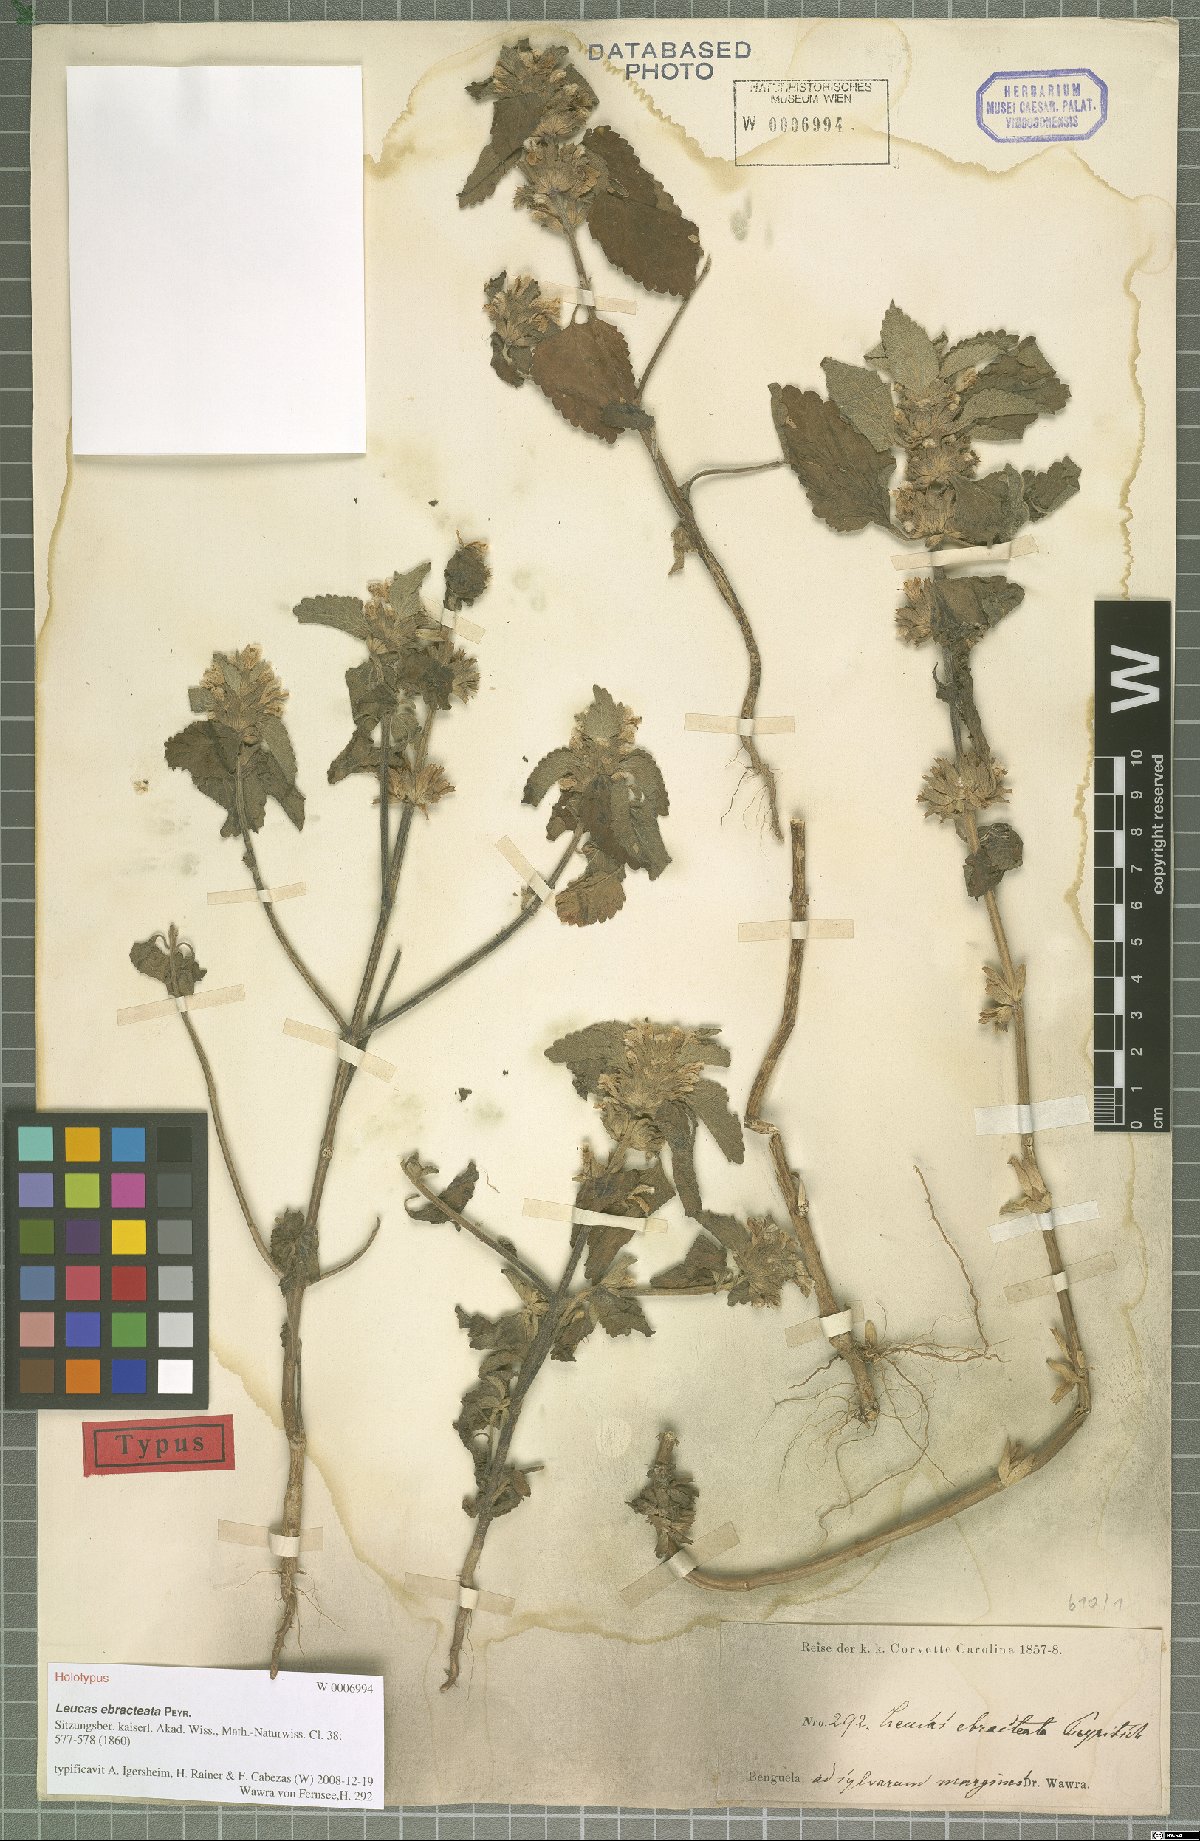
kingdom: Plantae
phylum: Tracheophyta
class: Magnoliopsida
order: Lamiales
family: Lamiaceae
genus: Leucas
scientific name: Leucas ebracteata
